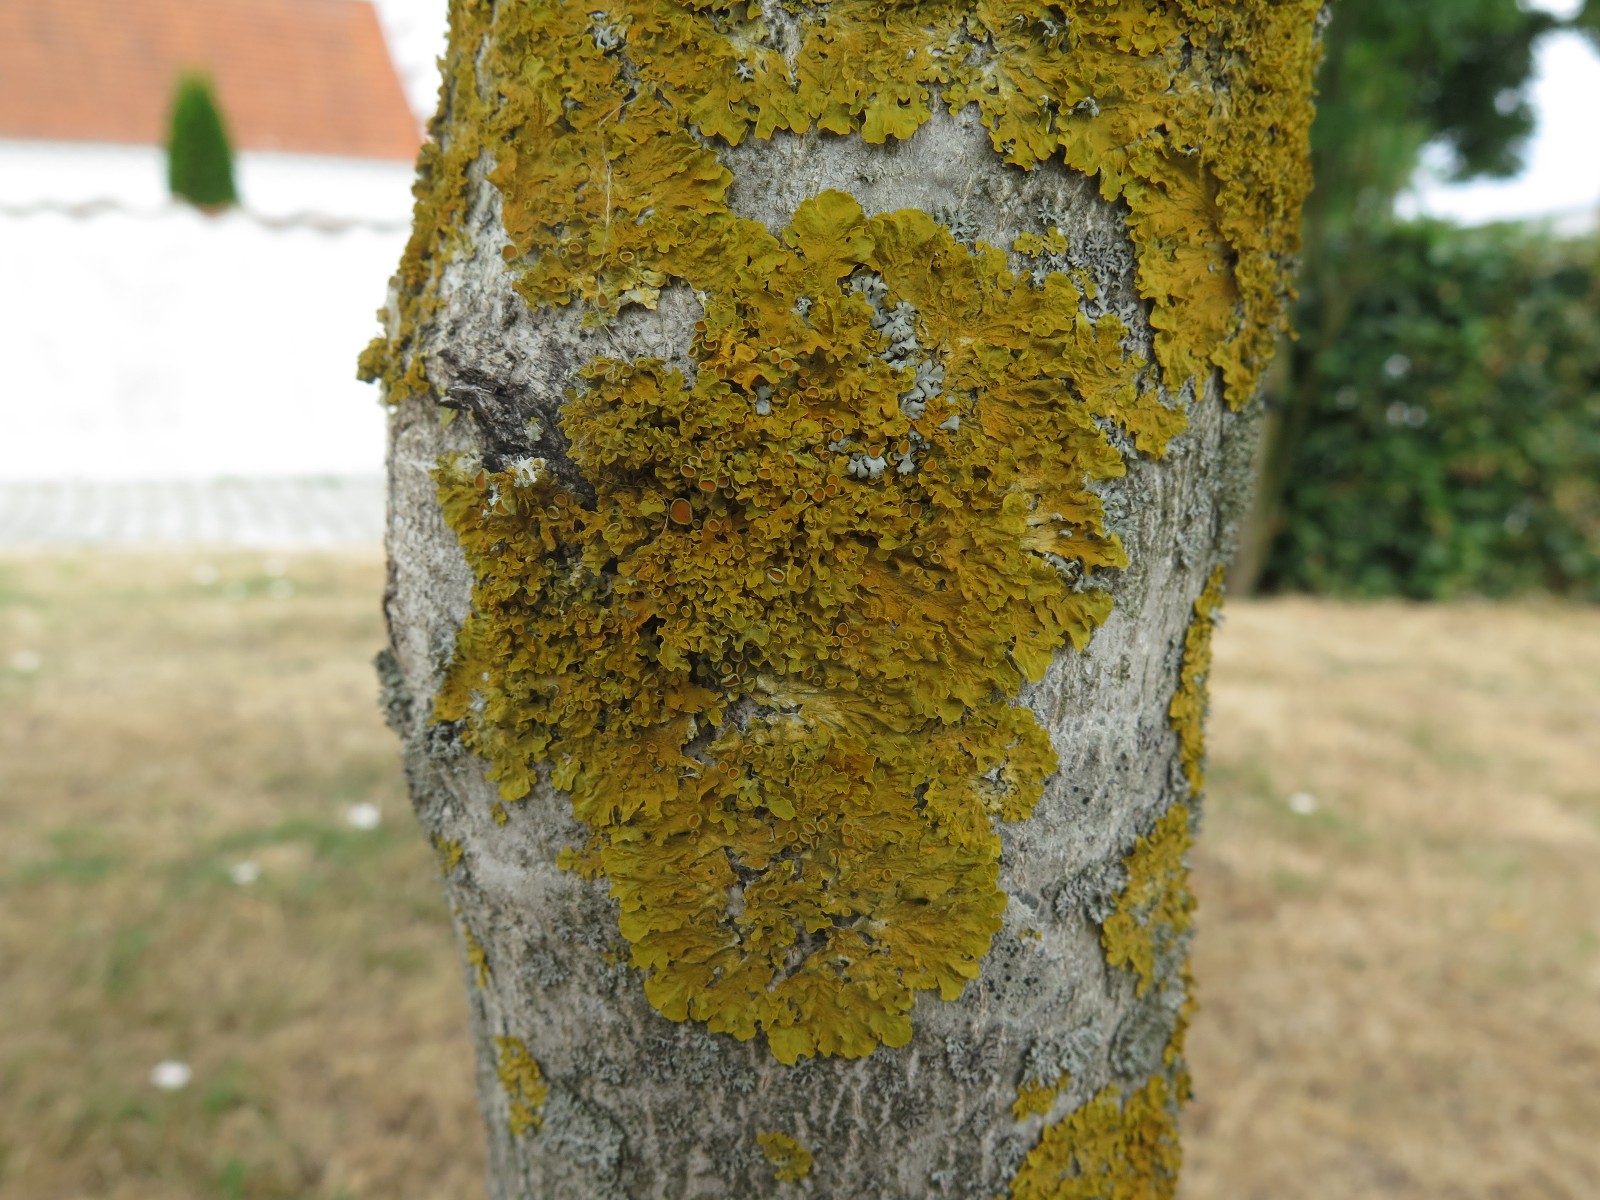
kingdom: Fungi
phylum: Ascomycota
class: Lecanoromycetes
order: Teloschistales
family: Teloschistaceae
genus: Xanthoria
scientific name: Xanthoria parietina
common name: almindelig væggelav
